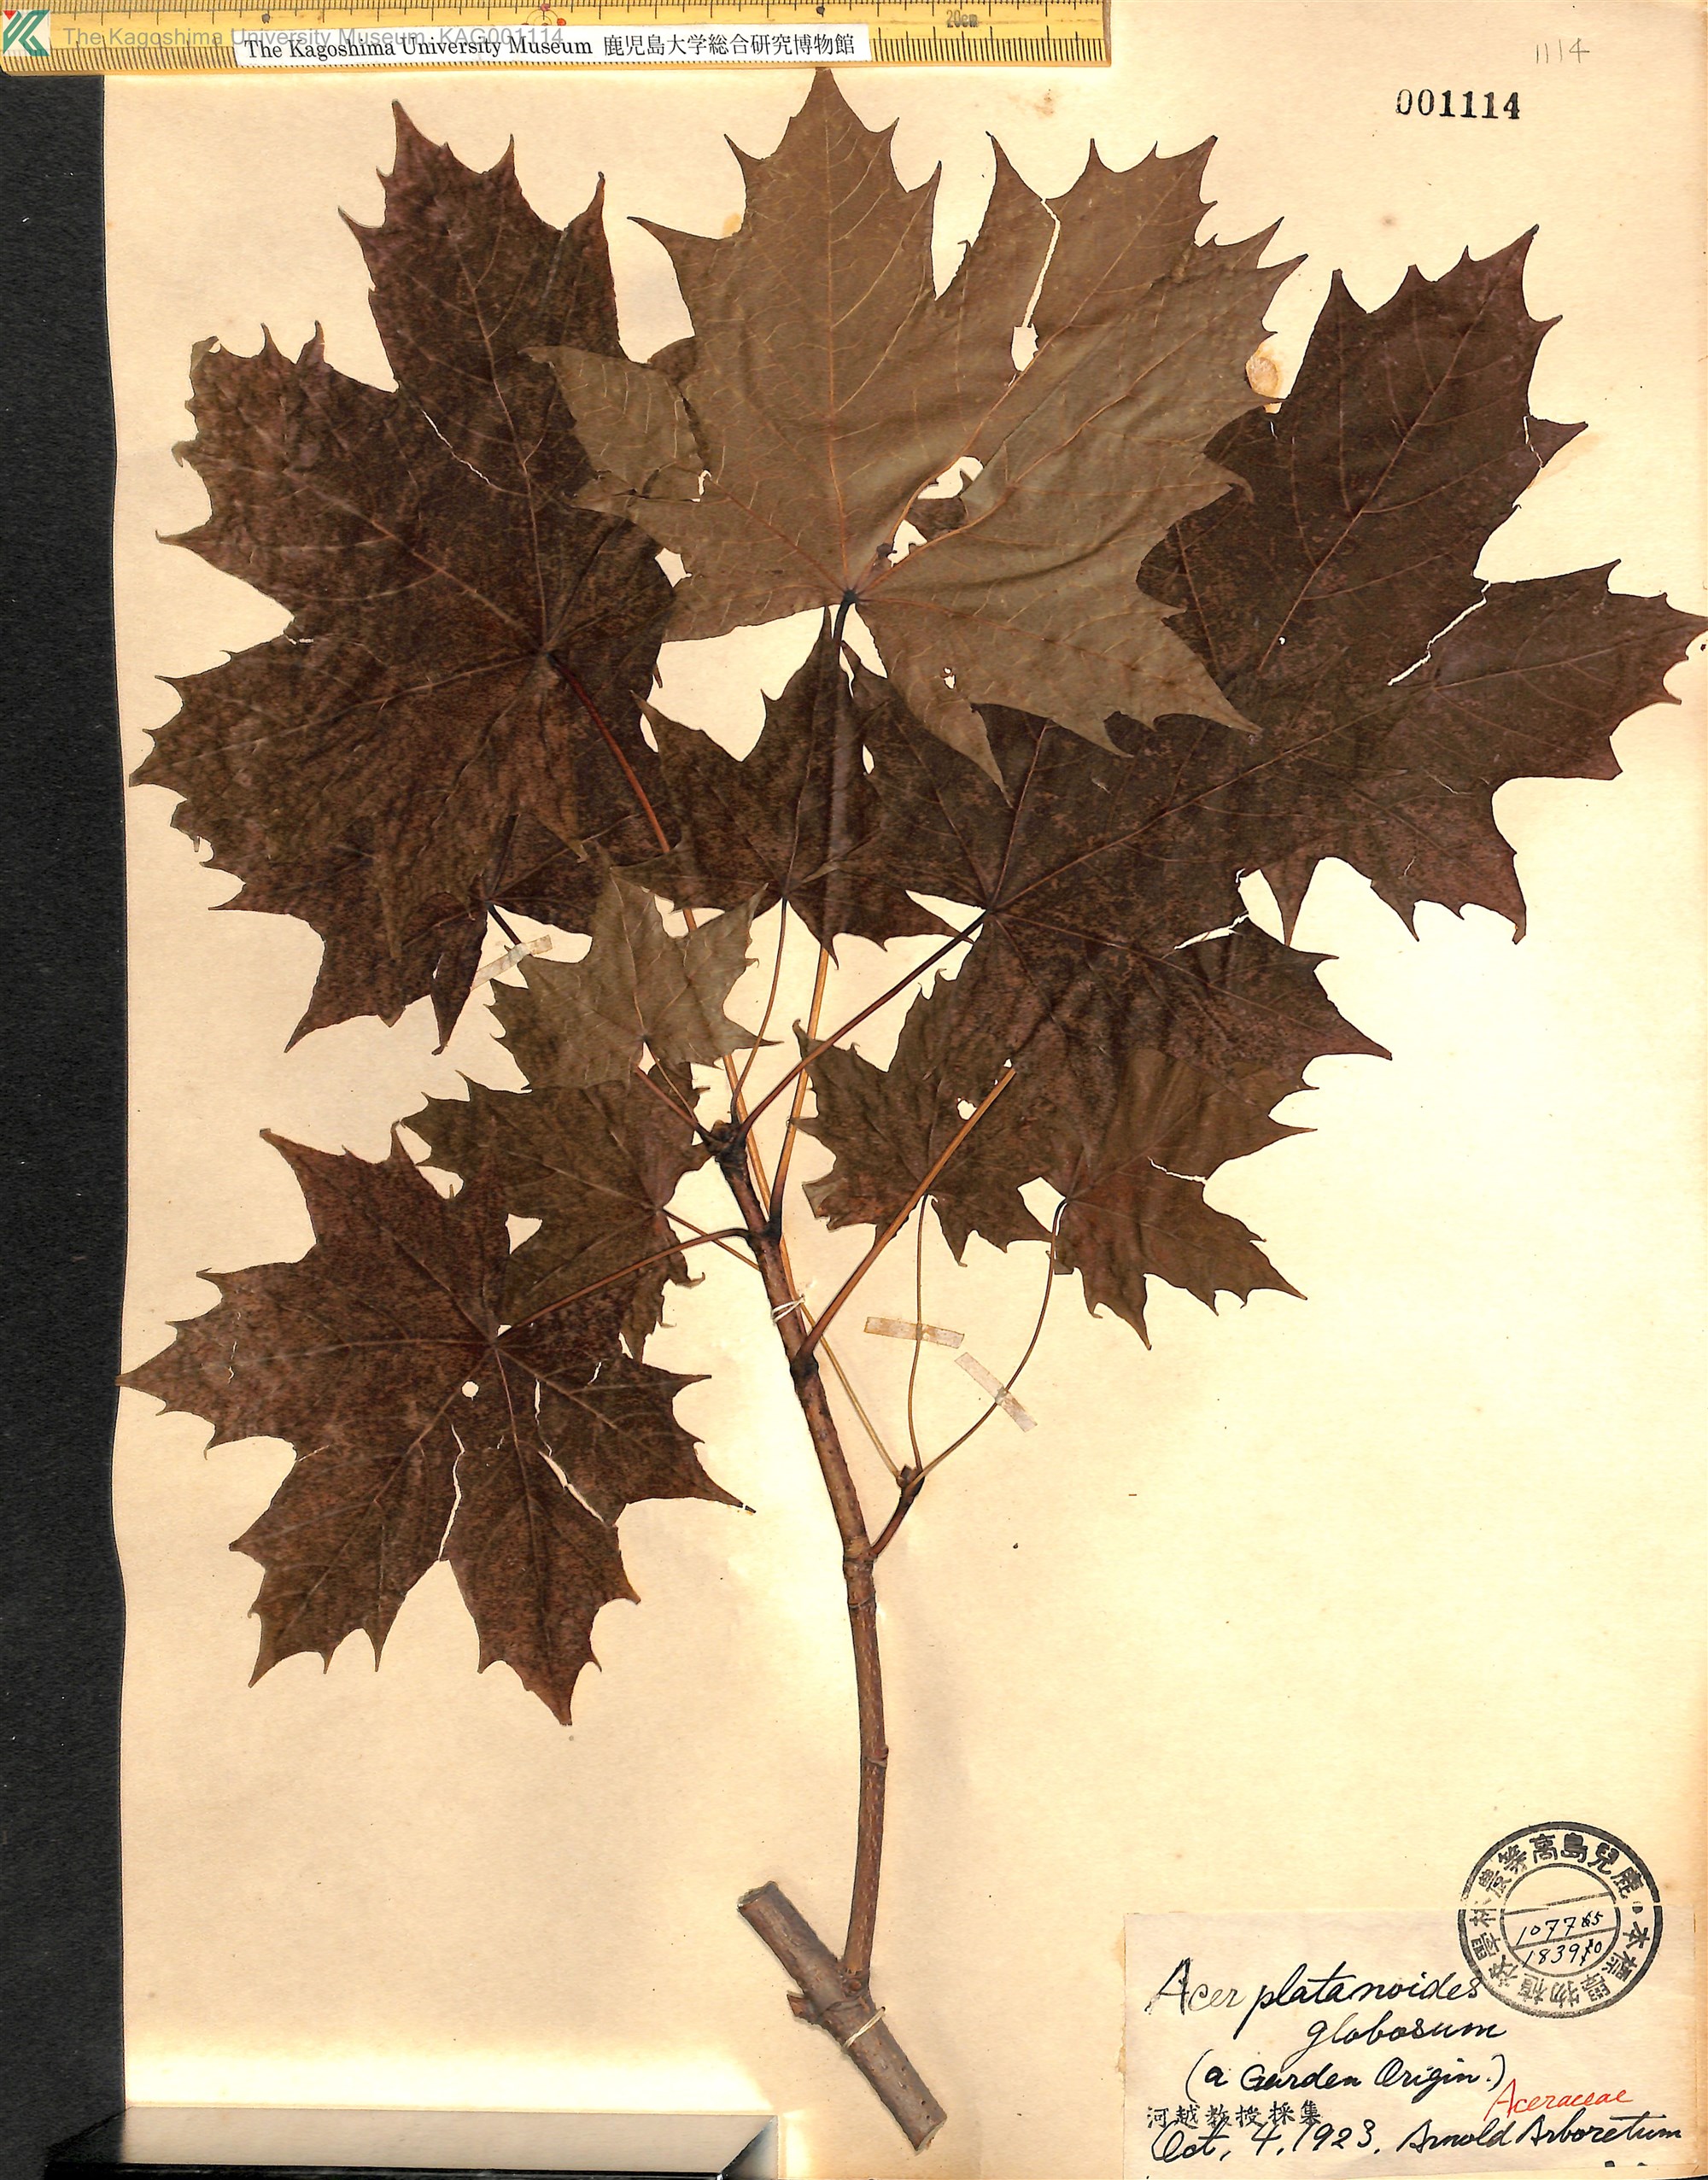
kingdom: Plantae
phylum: Tracheophyta
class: Magnoliopsida
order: Sapindales
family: Sapindaceae
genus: Acer
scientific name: Acer platanoides
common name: Norway maple
